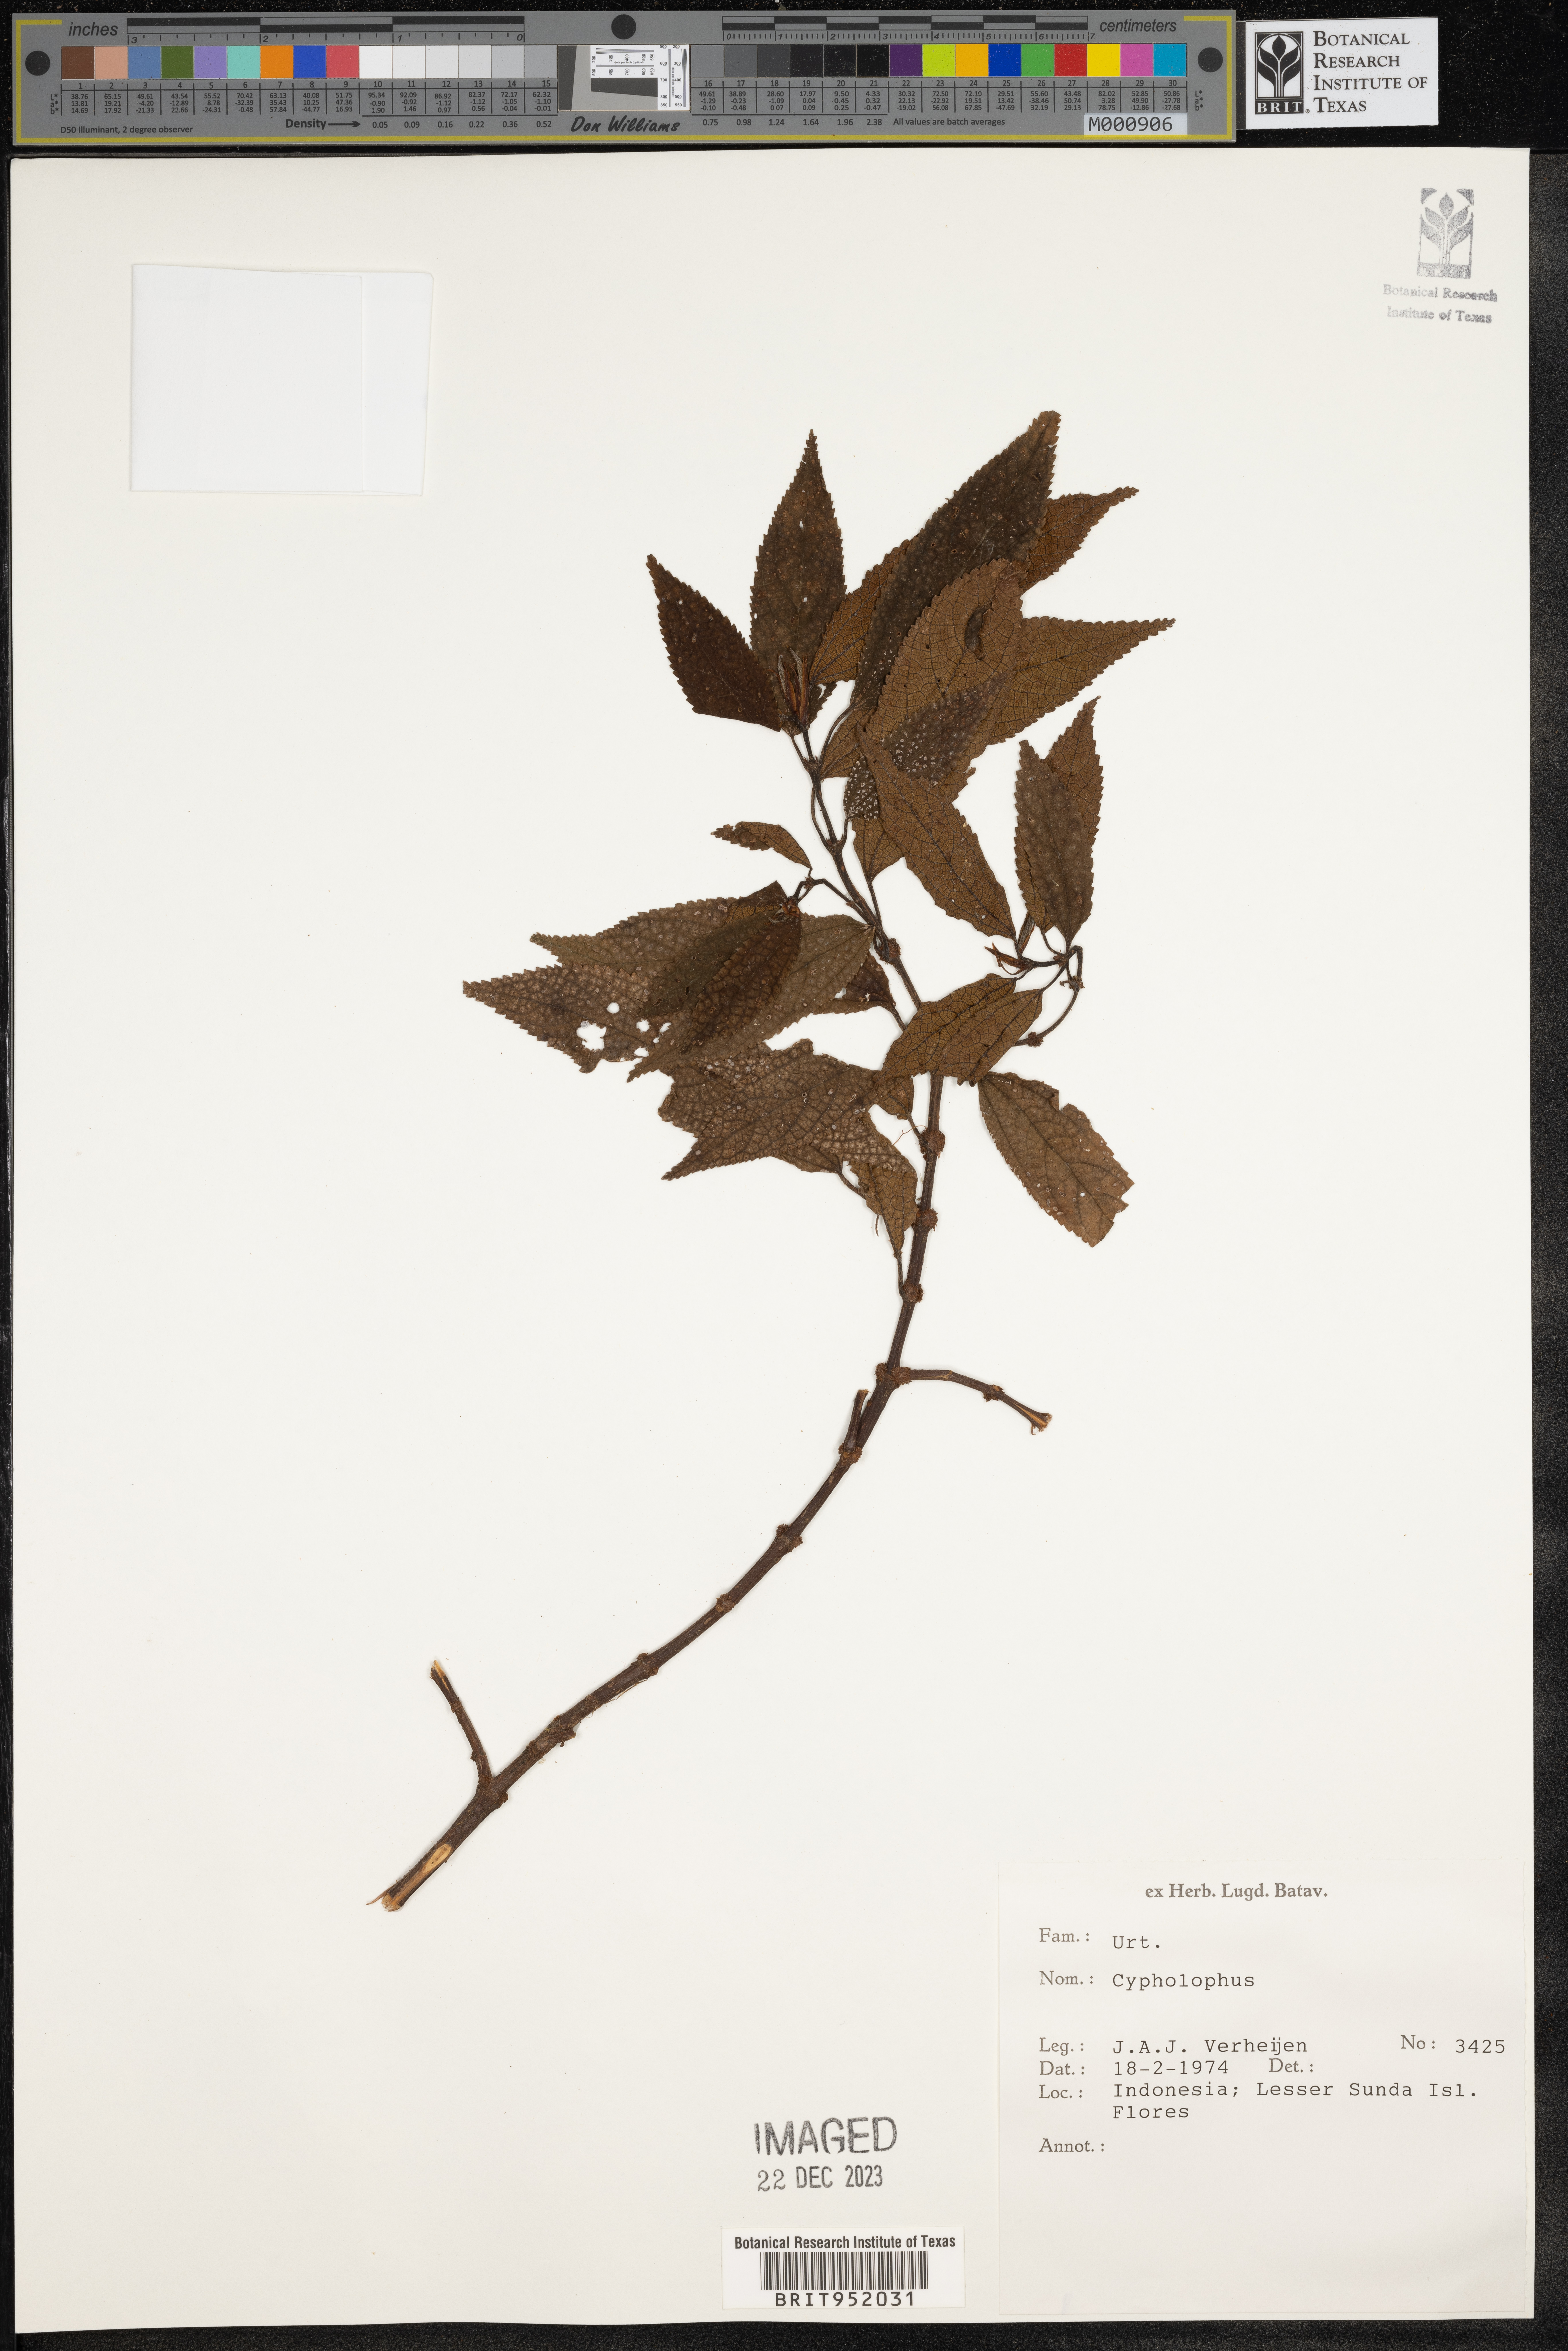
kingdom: Plantae
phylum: Tracheophyta
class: Magnoliopsida
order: Rosales
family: Urticaceae
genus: Cypholophus
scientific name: Cypholophus
